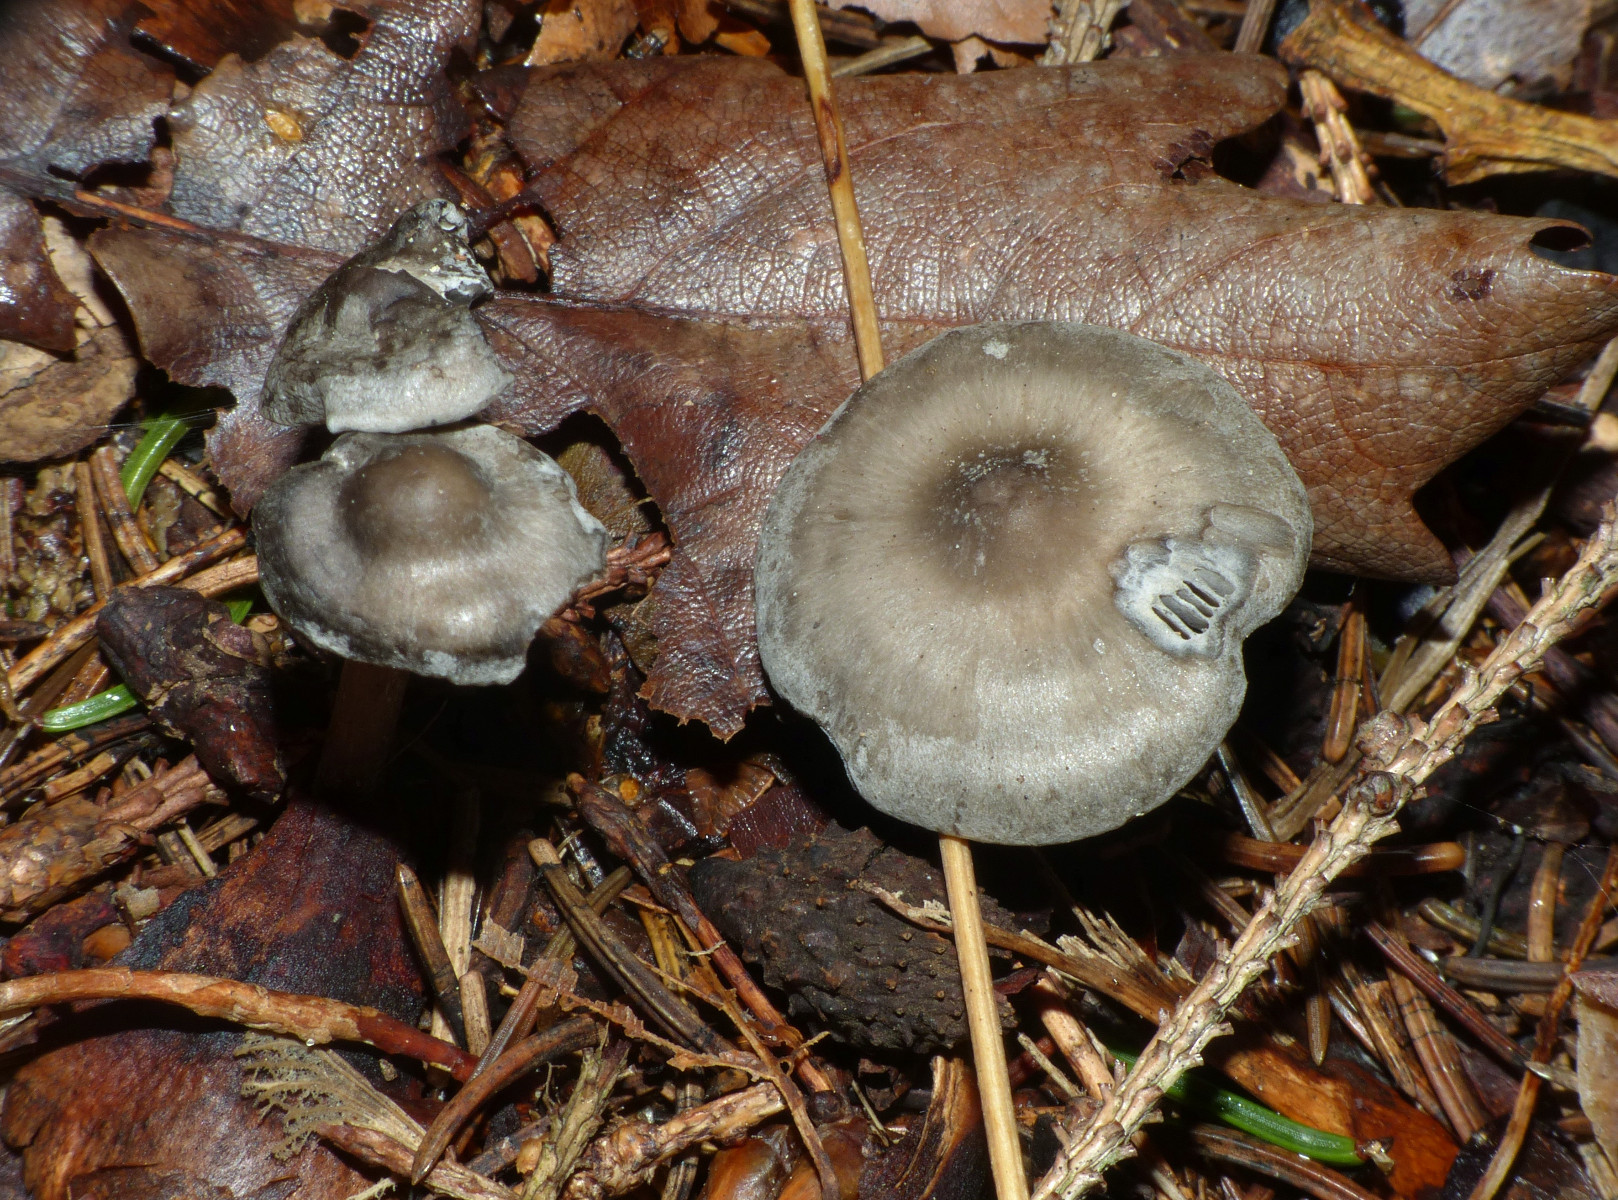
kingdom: Fungi
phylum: Basidiomycota
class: Agaricomycetes
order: Agaricales
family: Lyophyllaceae
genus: Tephrocybe
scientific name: Tephrocybe rancida
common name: mel-gråblad
